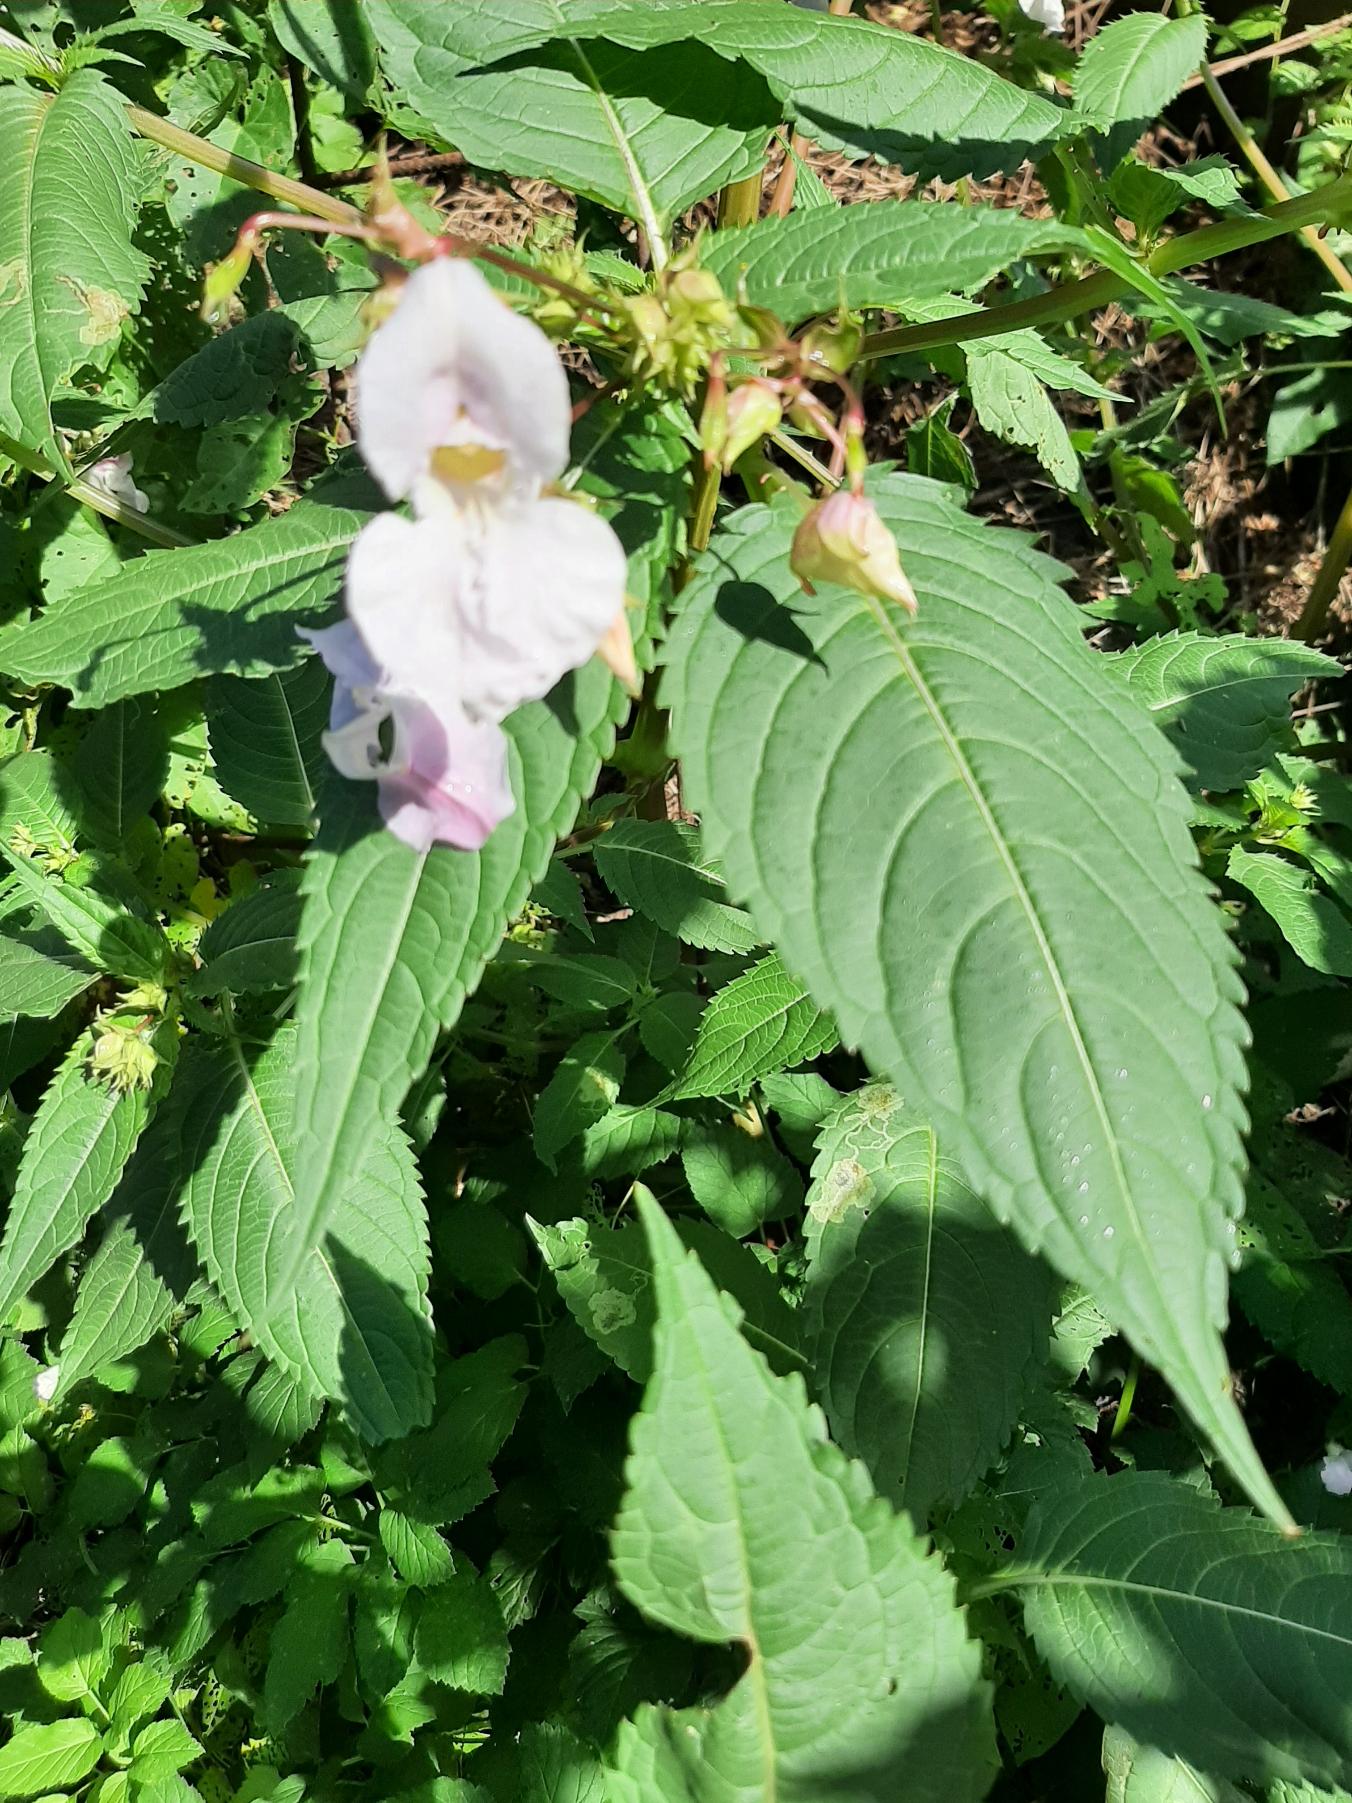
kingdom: Plantae
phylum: Tracheophyta
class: Magnoliopsida
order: Ericales
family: Balsaminaceae
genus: Impatiens
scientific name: Impatiens glandulifera
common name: Kæmpe-balsamin
